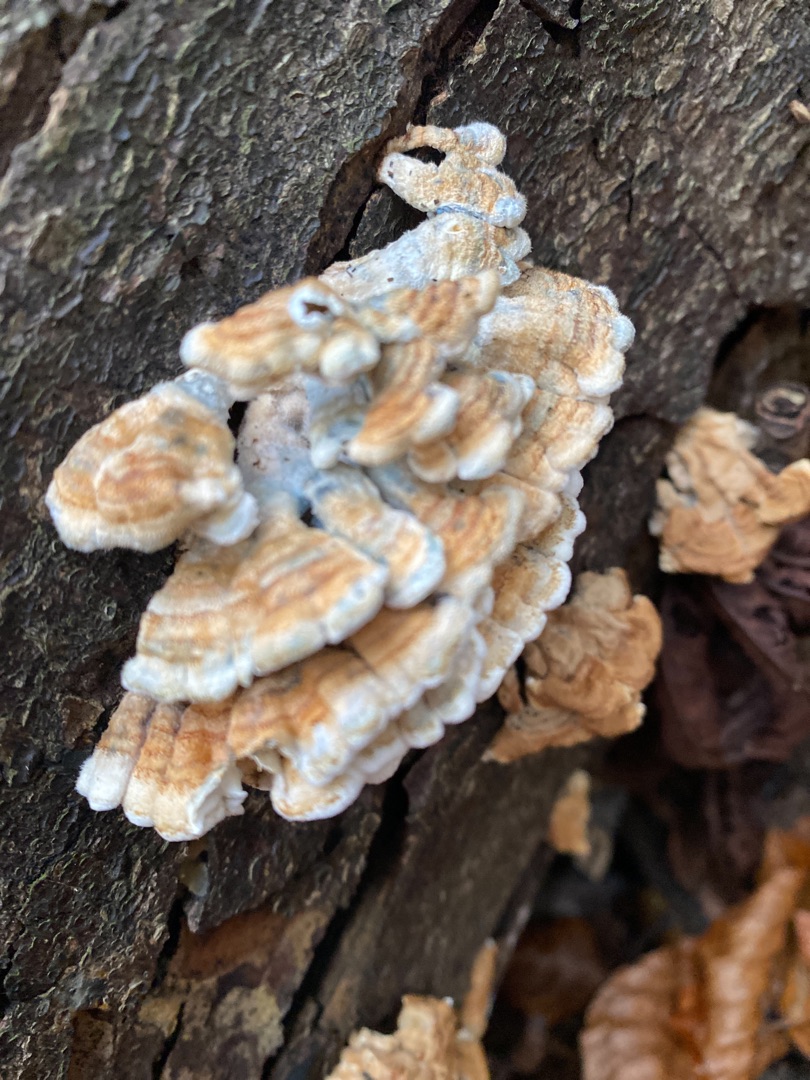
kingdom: Fungi
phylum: Basidiomycota
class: Agaricomycetes
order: Amylocorticiales
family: Amylocorticiaceae
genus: Plicaturopsis
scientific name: Plicaturopsis crispa
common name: Krusblad
